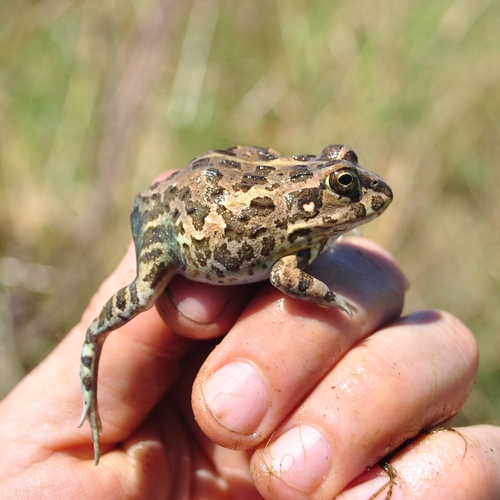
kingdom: Animalia
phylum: Chordata
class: Amphibia
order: Anura
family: Pyxicephalidae
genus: Pyxicephalus
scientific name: Pyxicephalus edulis
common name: Peter's bullfrog
